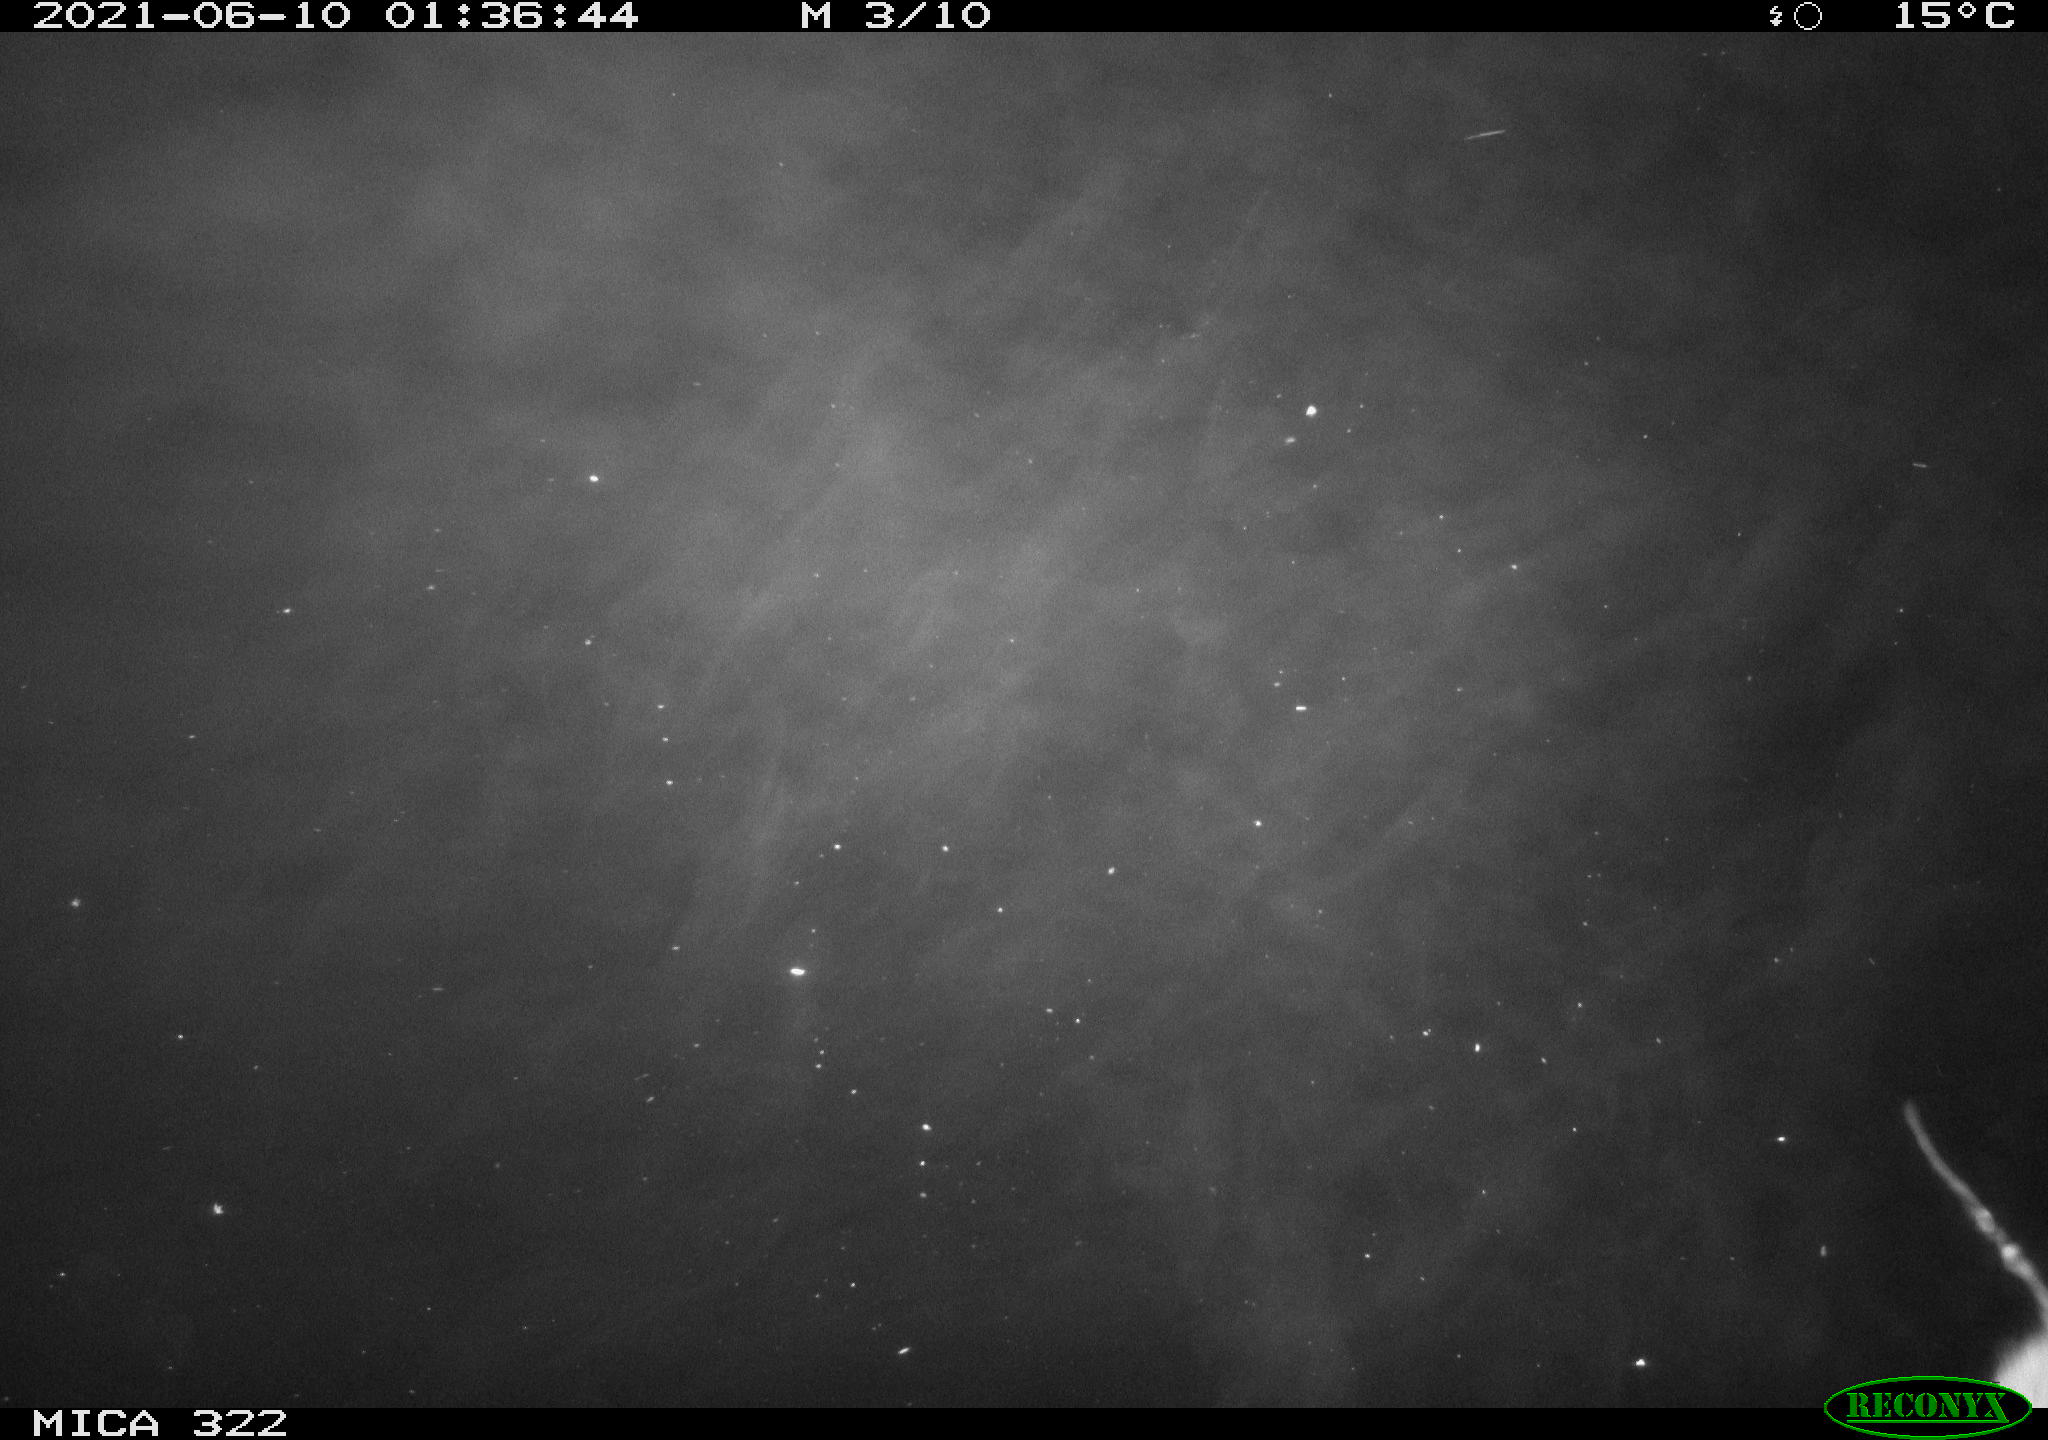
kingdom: Animalia
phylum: Chordata
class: Mammalia
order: Rodentia
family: Muridae
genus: Rattus
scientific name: Rattus norvegicus
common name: Brown rat
